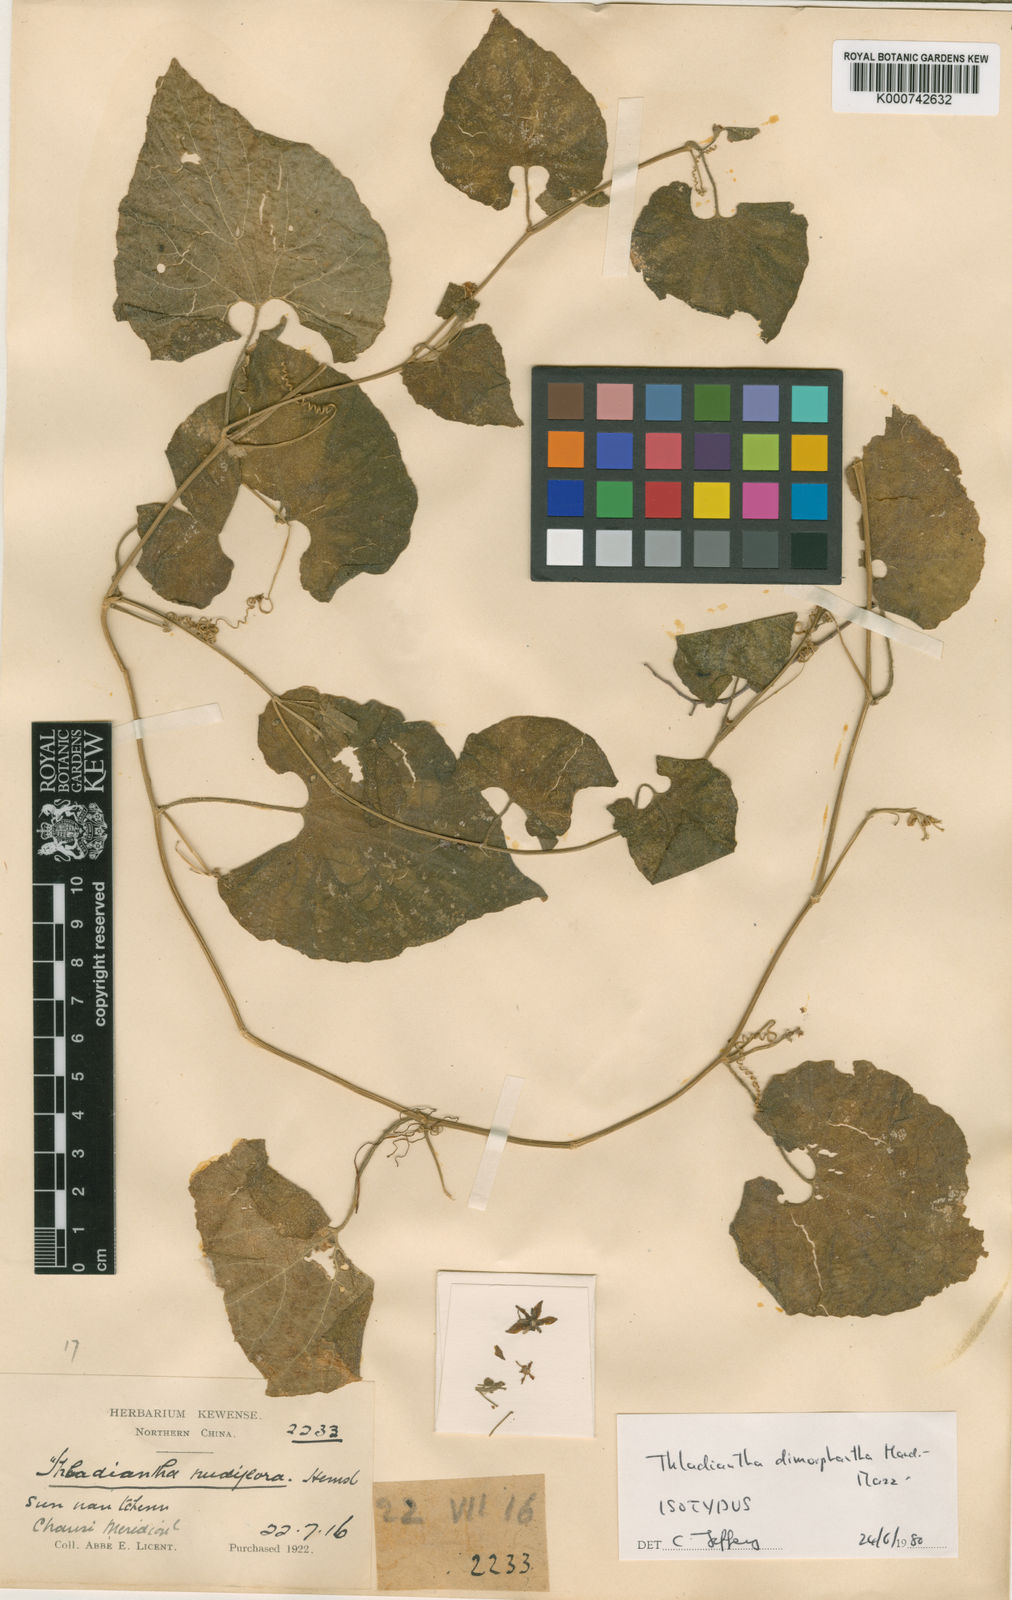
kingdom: Plantae
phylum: Tracheophyta
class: Magnoliopsida
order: Cucurbitales
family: Cucurbitaceae
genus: Thladiantha
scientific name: Thladiantha dimorphantha
